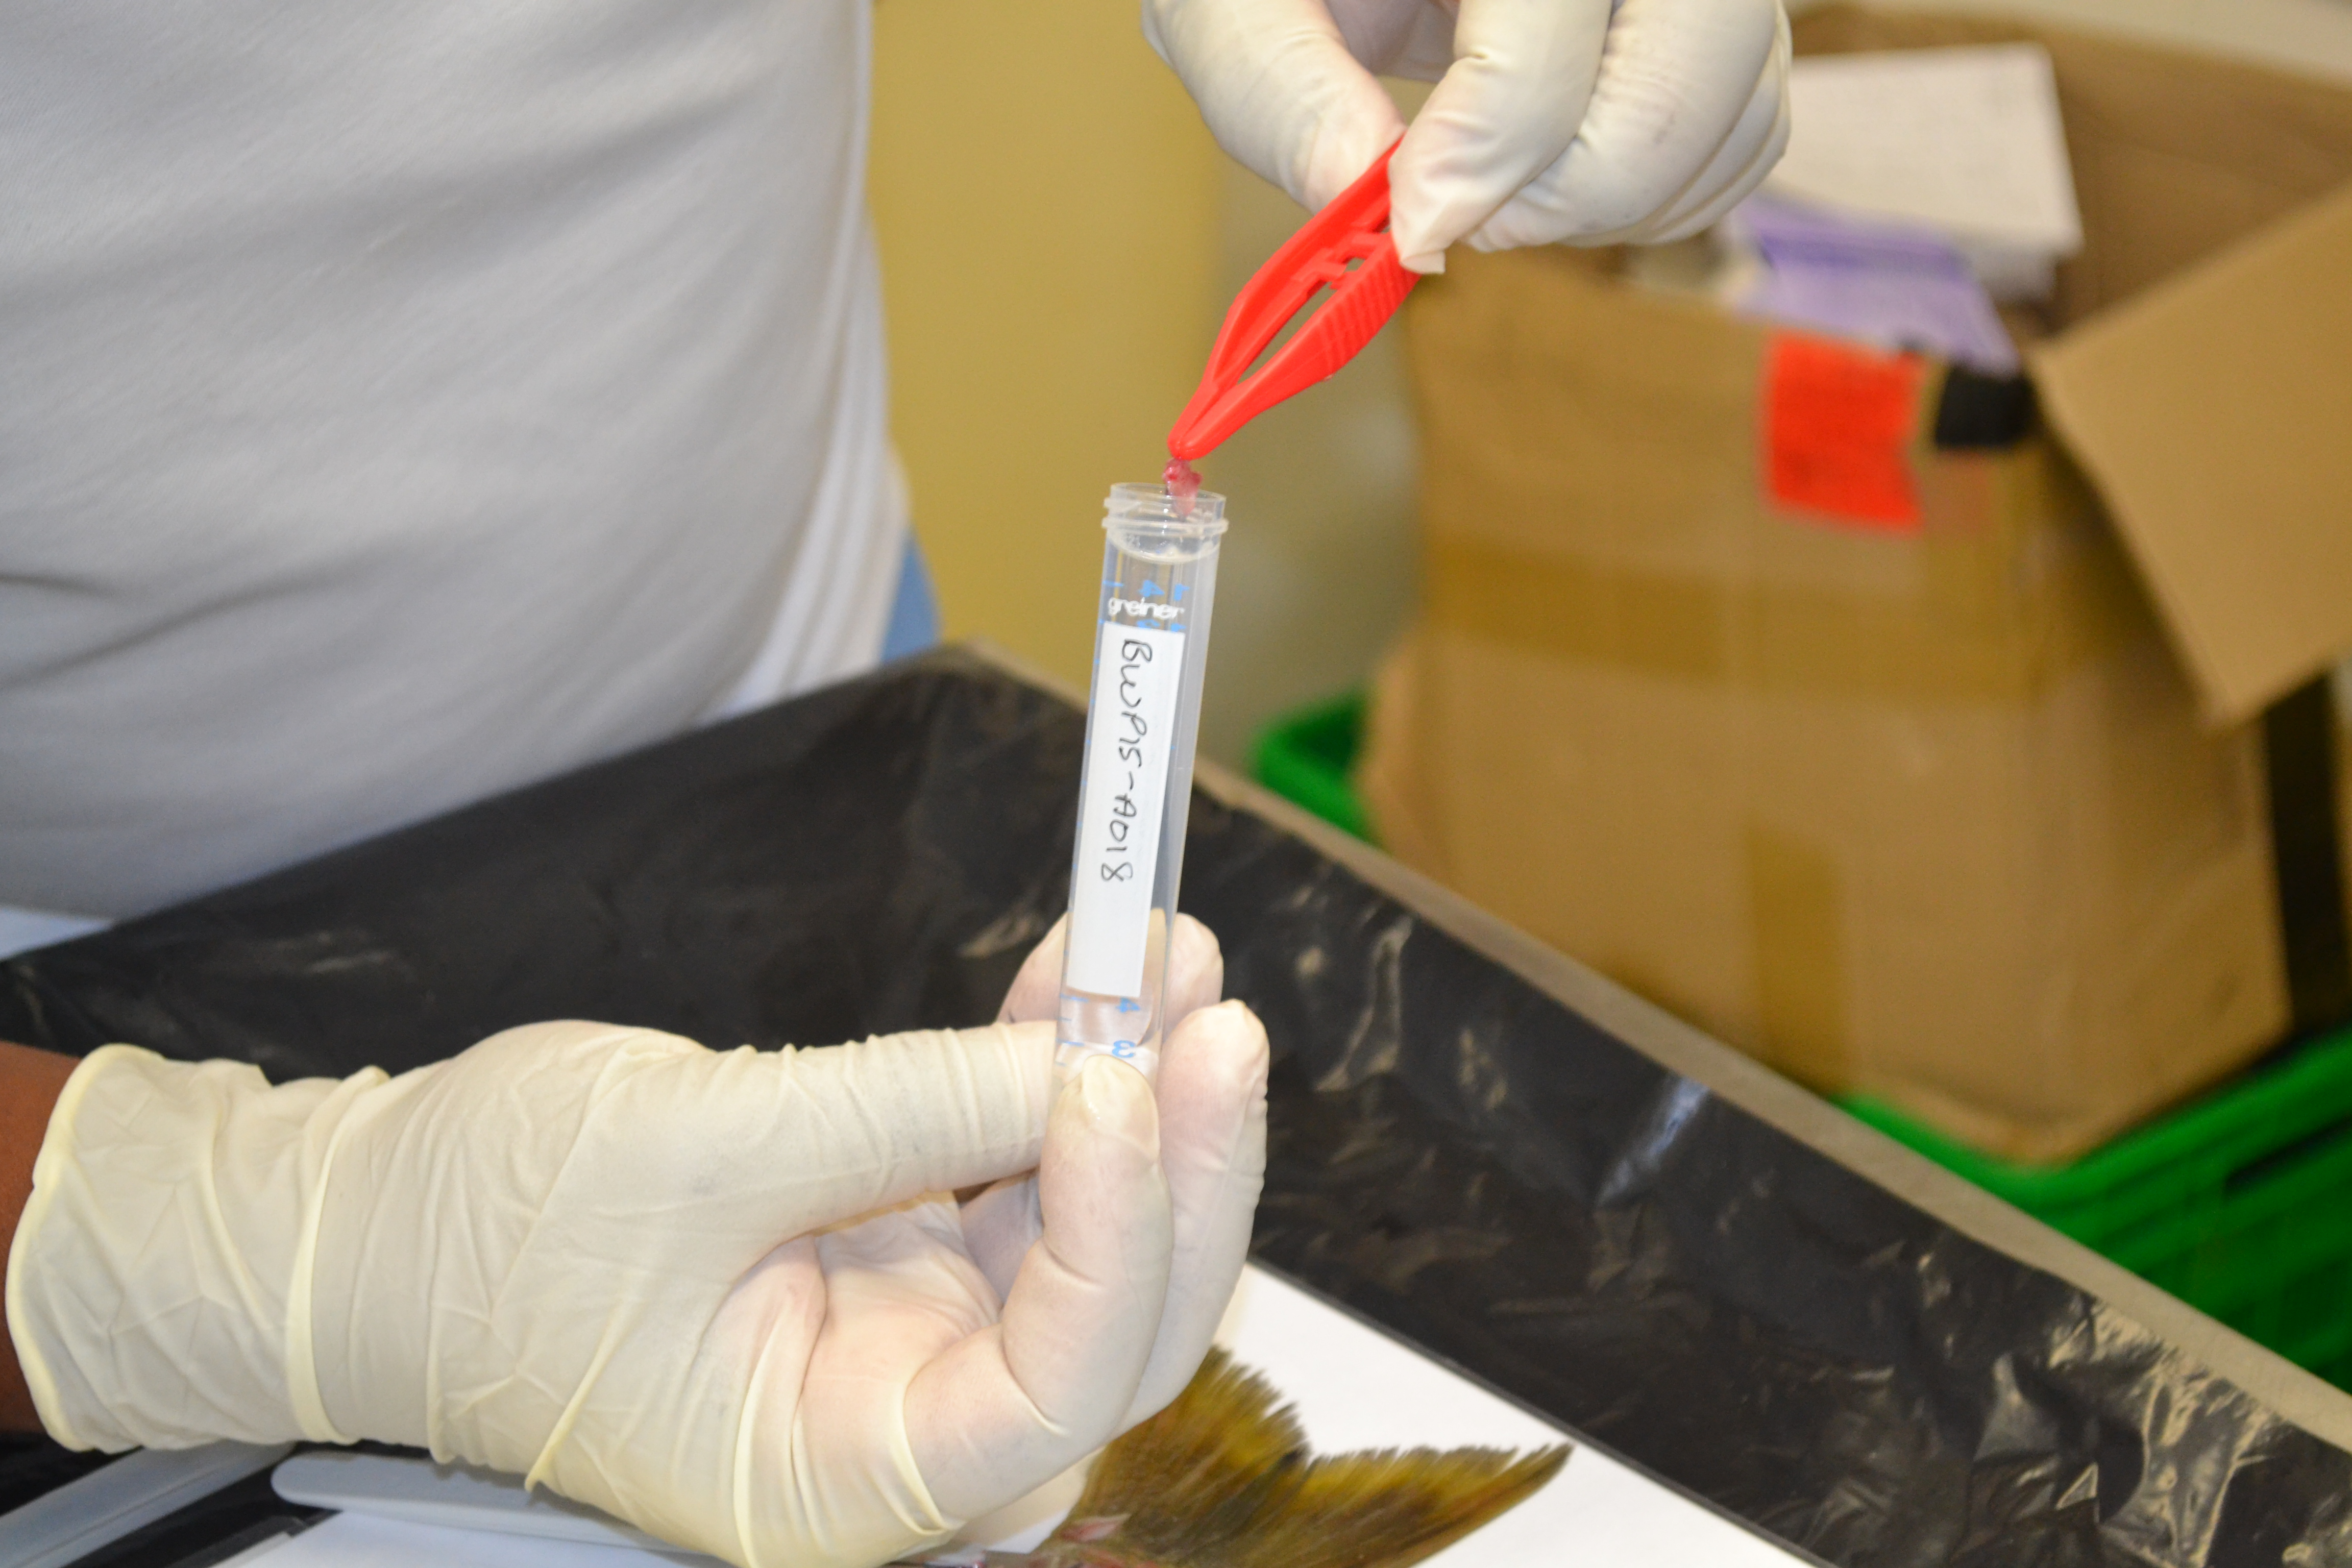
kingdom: Animalia
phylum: Chordata
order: Perciformes
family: Sparidae
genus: Rhabdosargus
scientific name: Rhabdosargus globiceps
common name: White stumpnose
